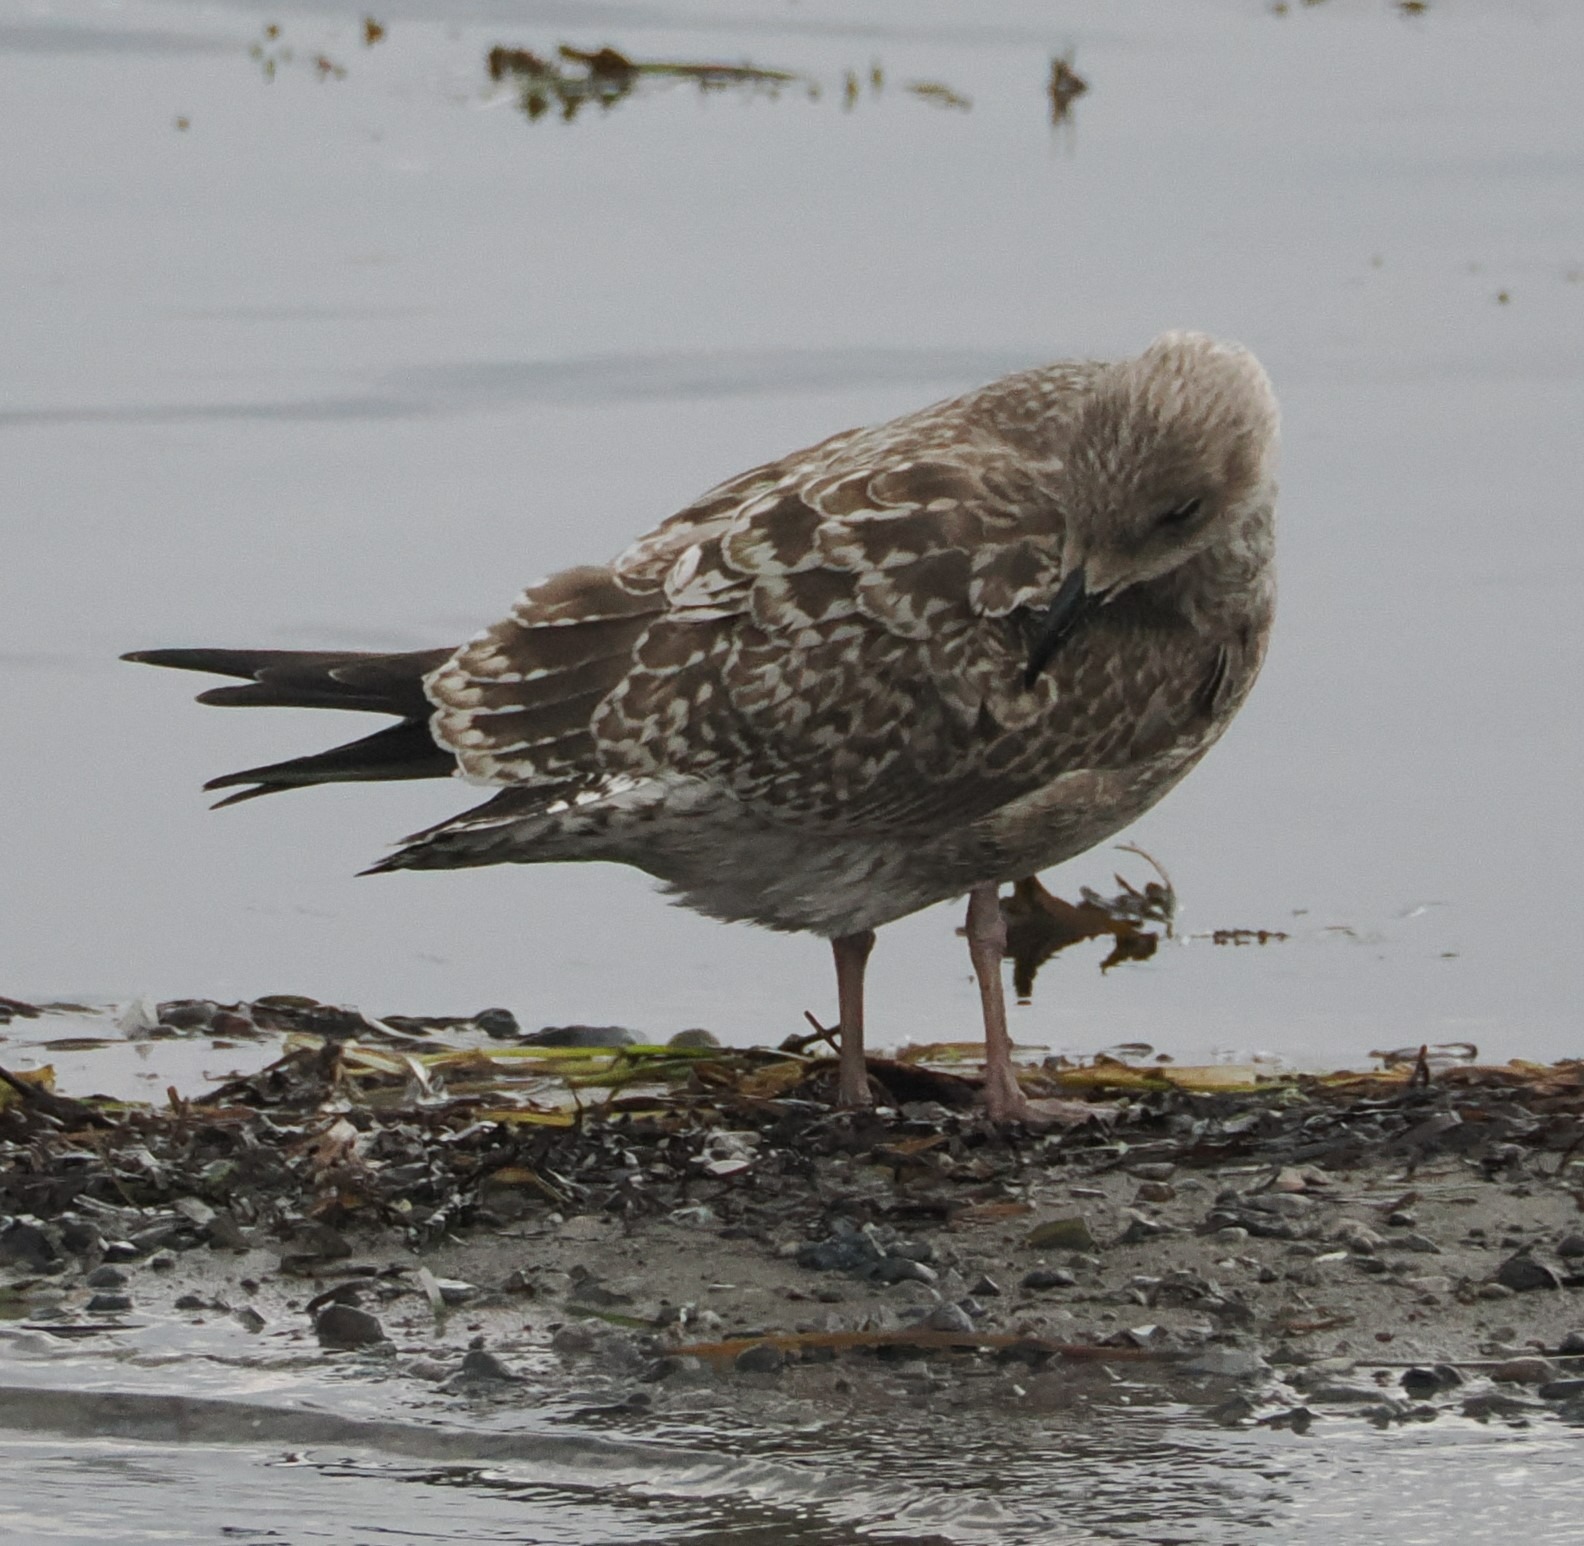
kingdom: Animalia
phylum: Chordata
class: Aves
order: Charadriiformes
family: Laridae
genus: Larus
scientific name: Larus argentatus
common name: Sølvmåge
